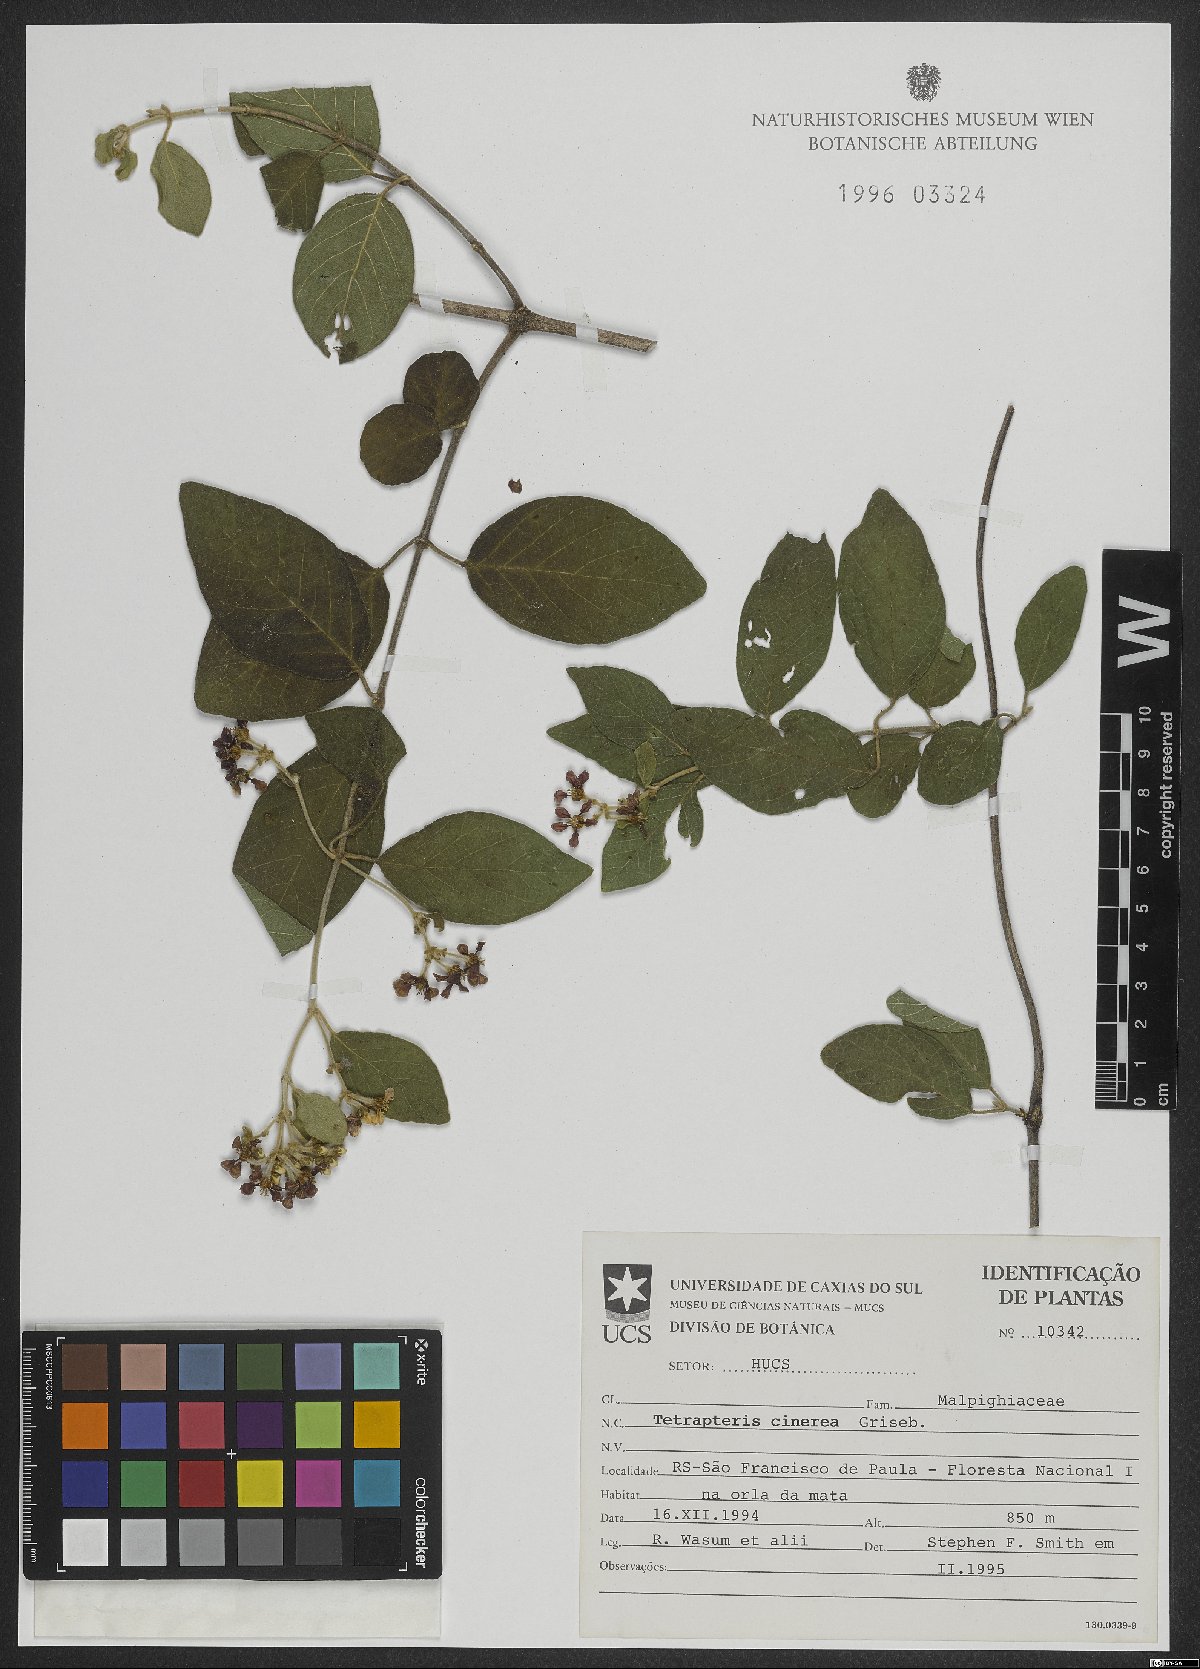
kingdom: Plantae
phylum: Tracheophyta
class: Magnoliopsida
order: Malpighiales
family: Malpighiaceae
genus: Tetrapterys
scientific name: Tetrapterys mollis
